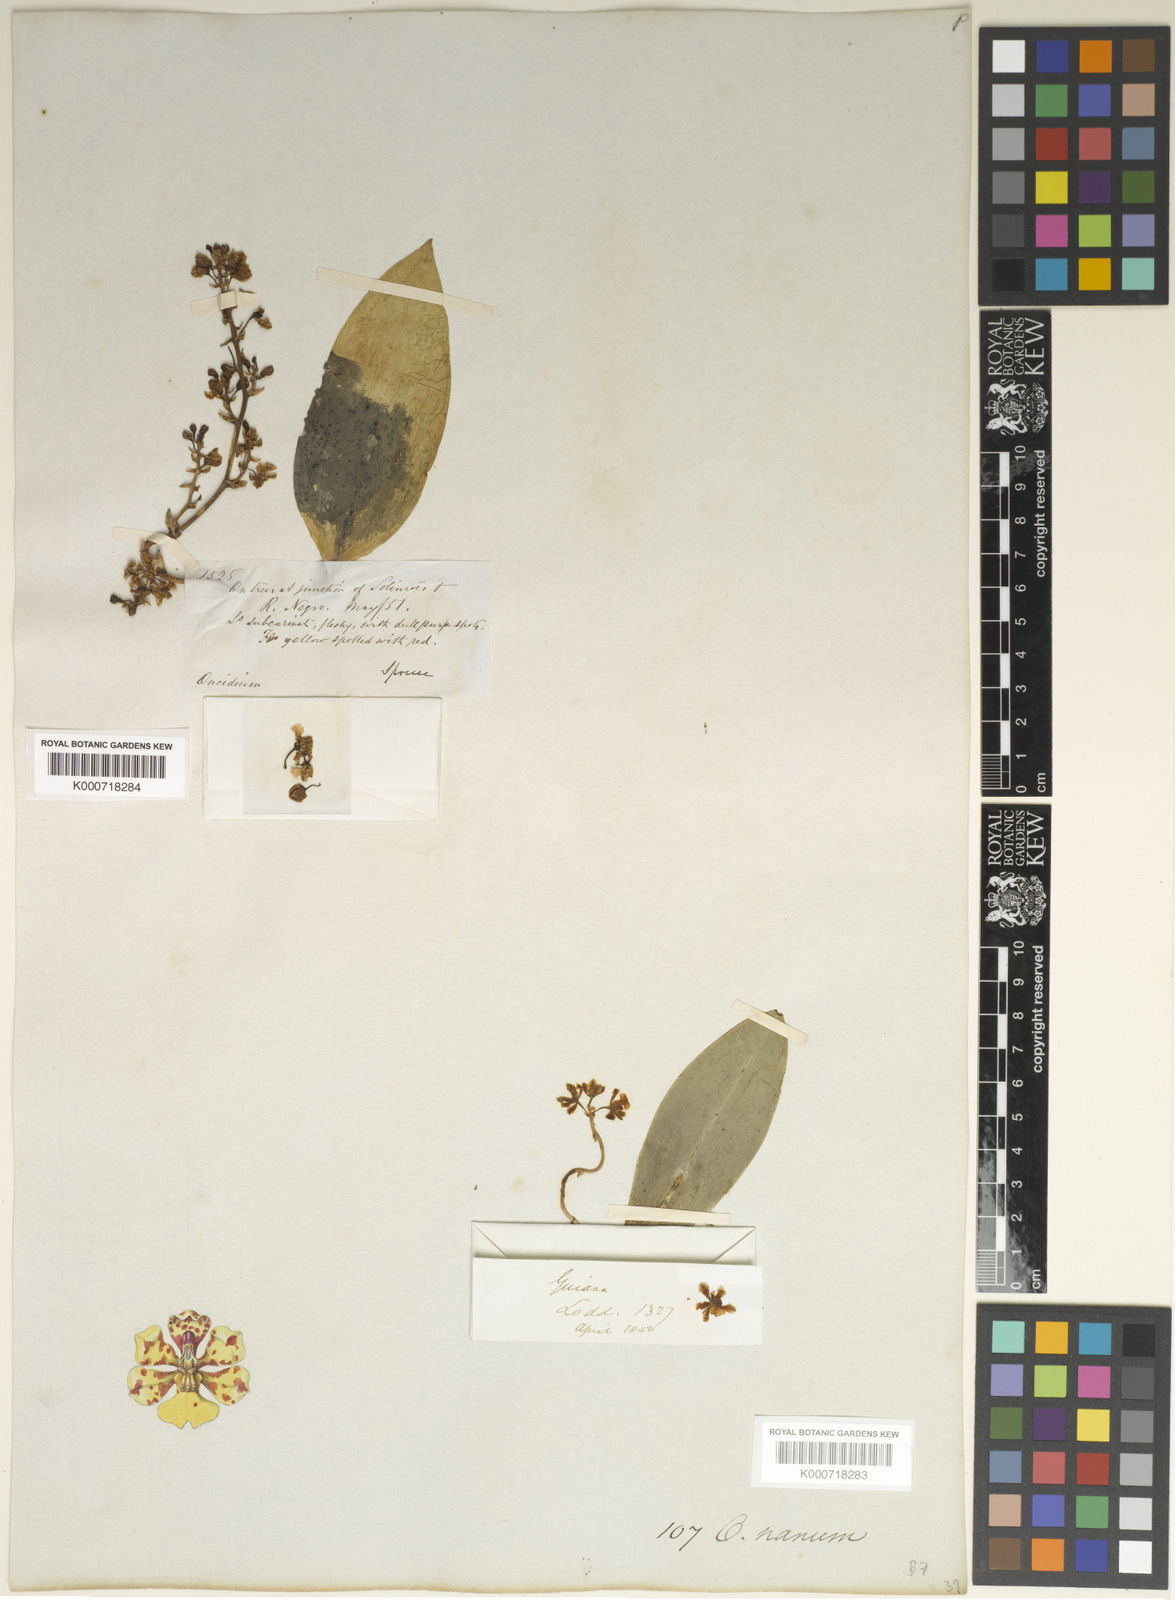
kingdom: Plantae
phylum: Tracheophyta
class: Liliopsida
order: Asparagales
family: Orchidaceae
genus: Trichocentrum
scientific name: Trichocentrum nanum
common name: Mule-ear orchid
